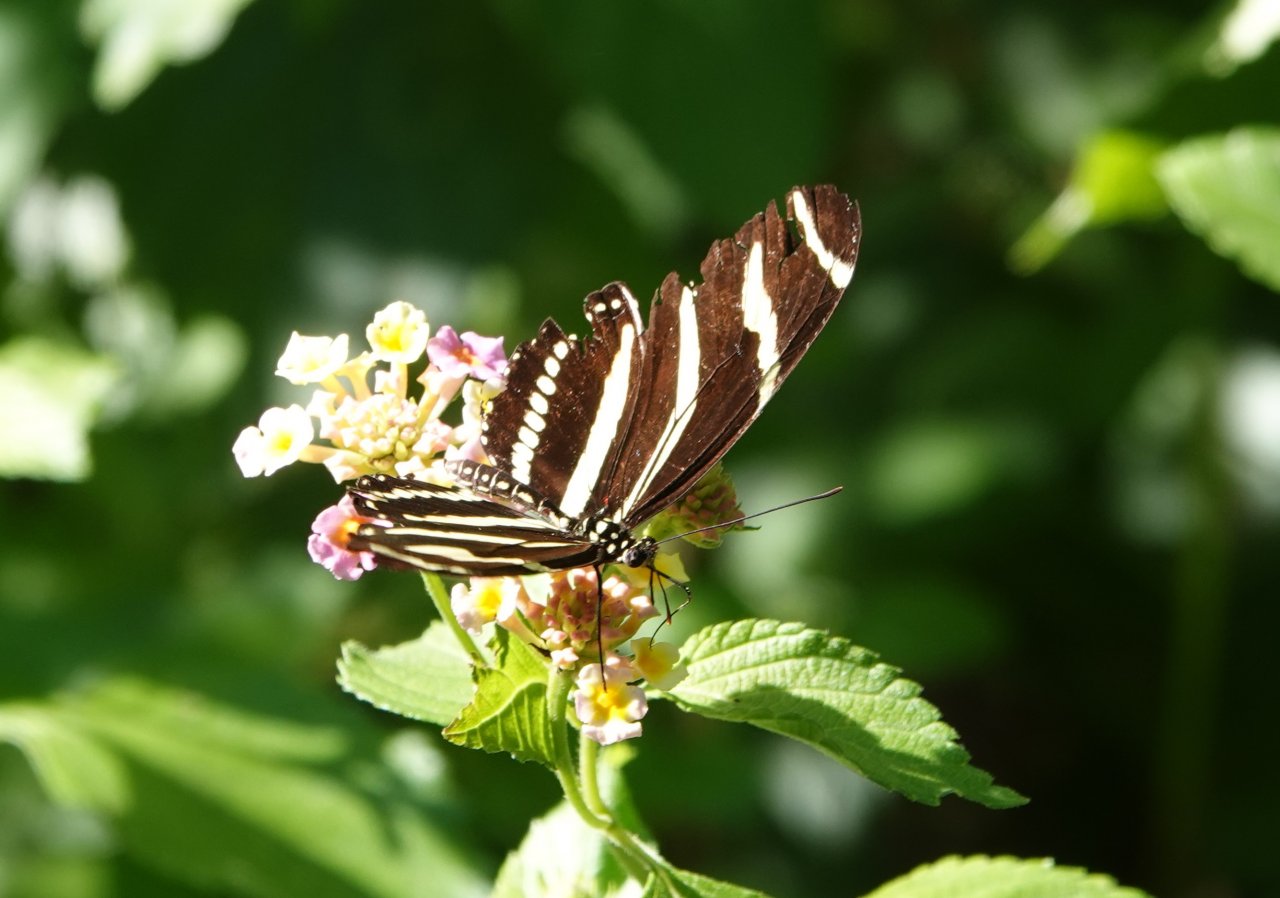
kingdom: Animalia
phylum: Arthropoda
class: Insecta
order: Lepidoptera
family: Nymphalidae
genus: Heliconius
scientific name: Heliconius charithonia
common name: Zebra Longwing
